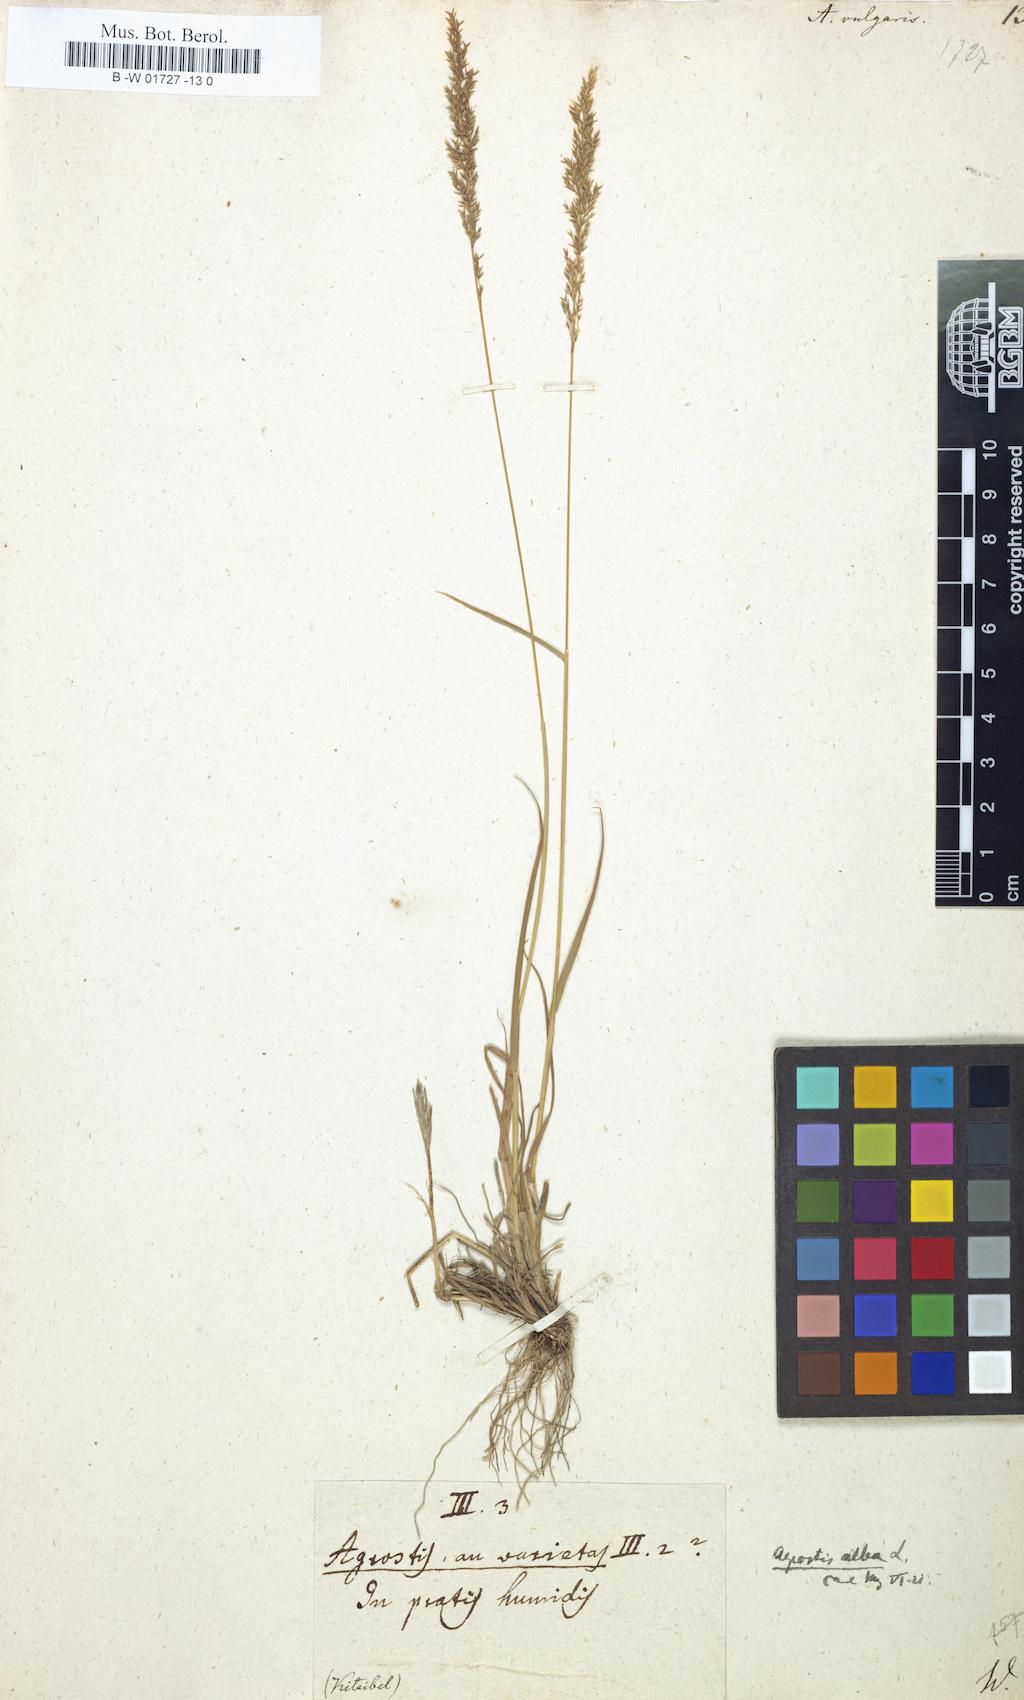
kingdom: Plantae
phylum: Tracheophyta
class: Liliopsida
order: Poales
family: Poaceae
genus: Agrostis
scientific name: Agrostis capillaris
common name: Colonial bentgrass
